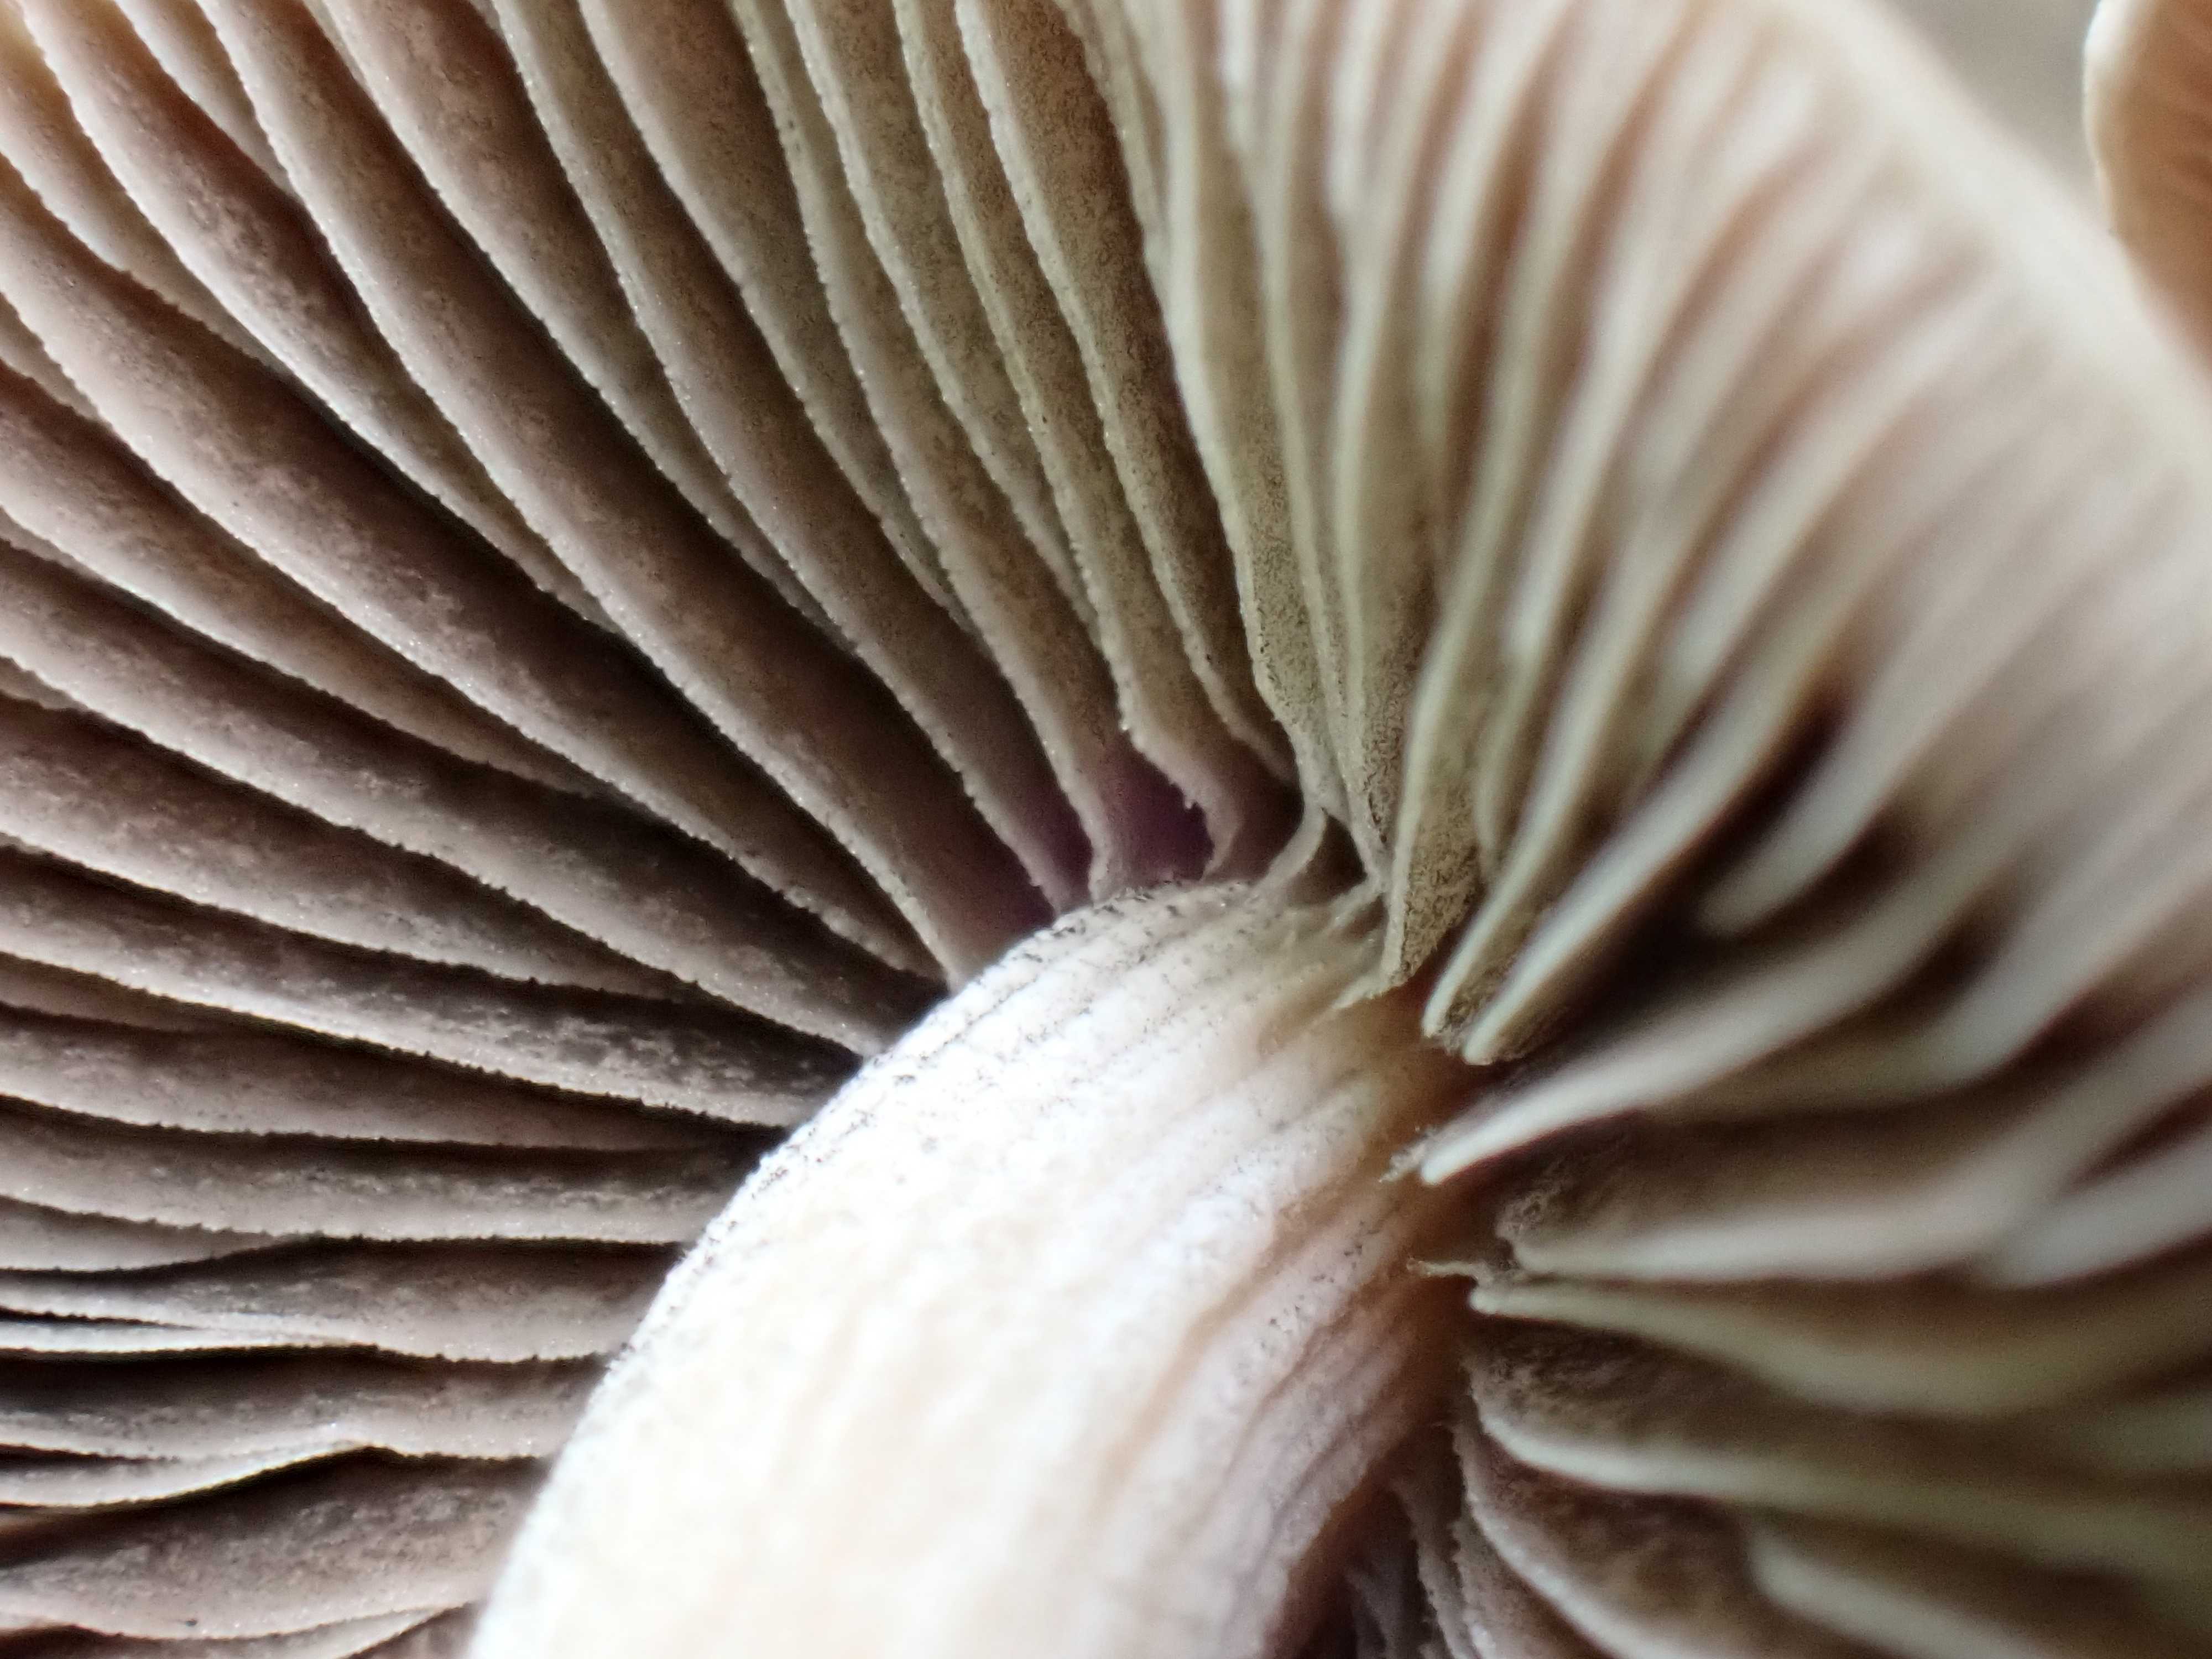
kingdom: Fungi
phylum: Basidiomycota
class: Agaricomycetes
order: Agaricales
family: Bolbitiaceae
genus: Panaeolus
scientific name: Panaeolus cinctulus
